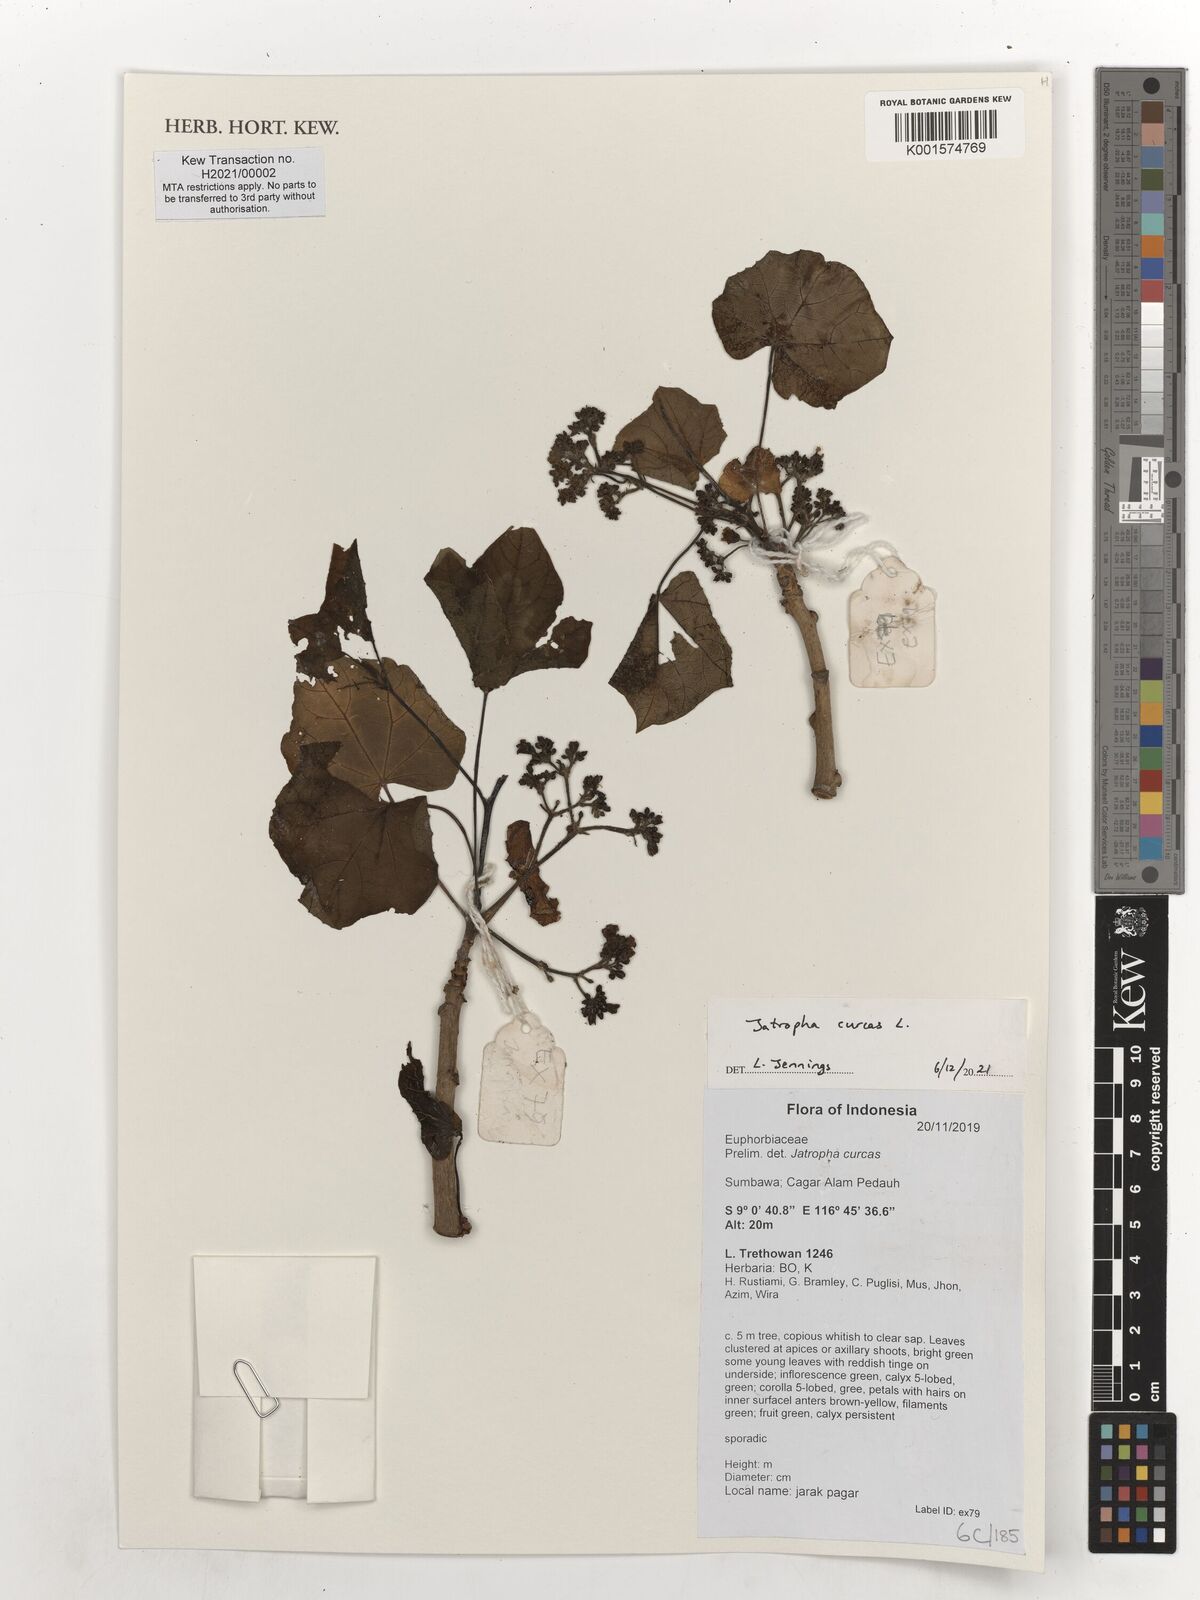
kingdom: Plantae
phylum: Tracheophyta
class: Magnoliopsida
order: Malpighiales
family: Euphorbiaceae
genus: Jatropha
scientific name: Jatropha curcas
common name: Barbados nut
